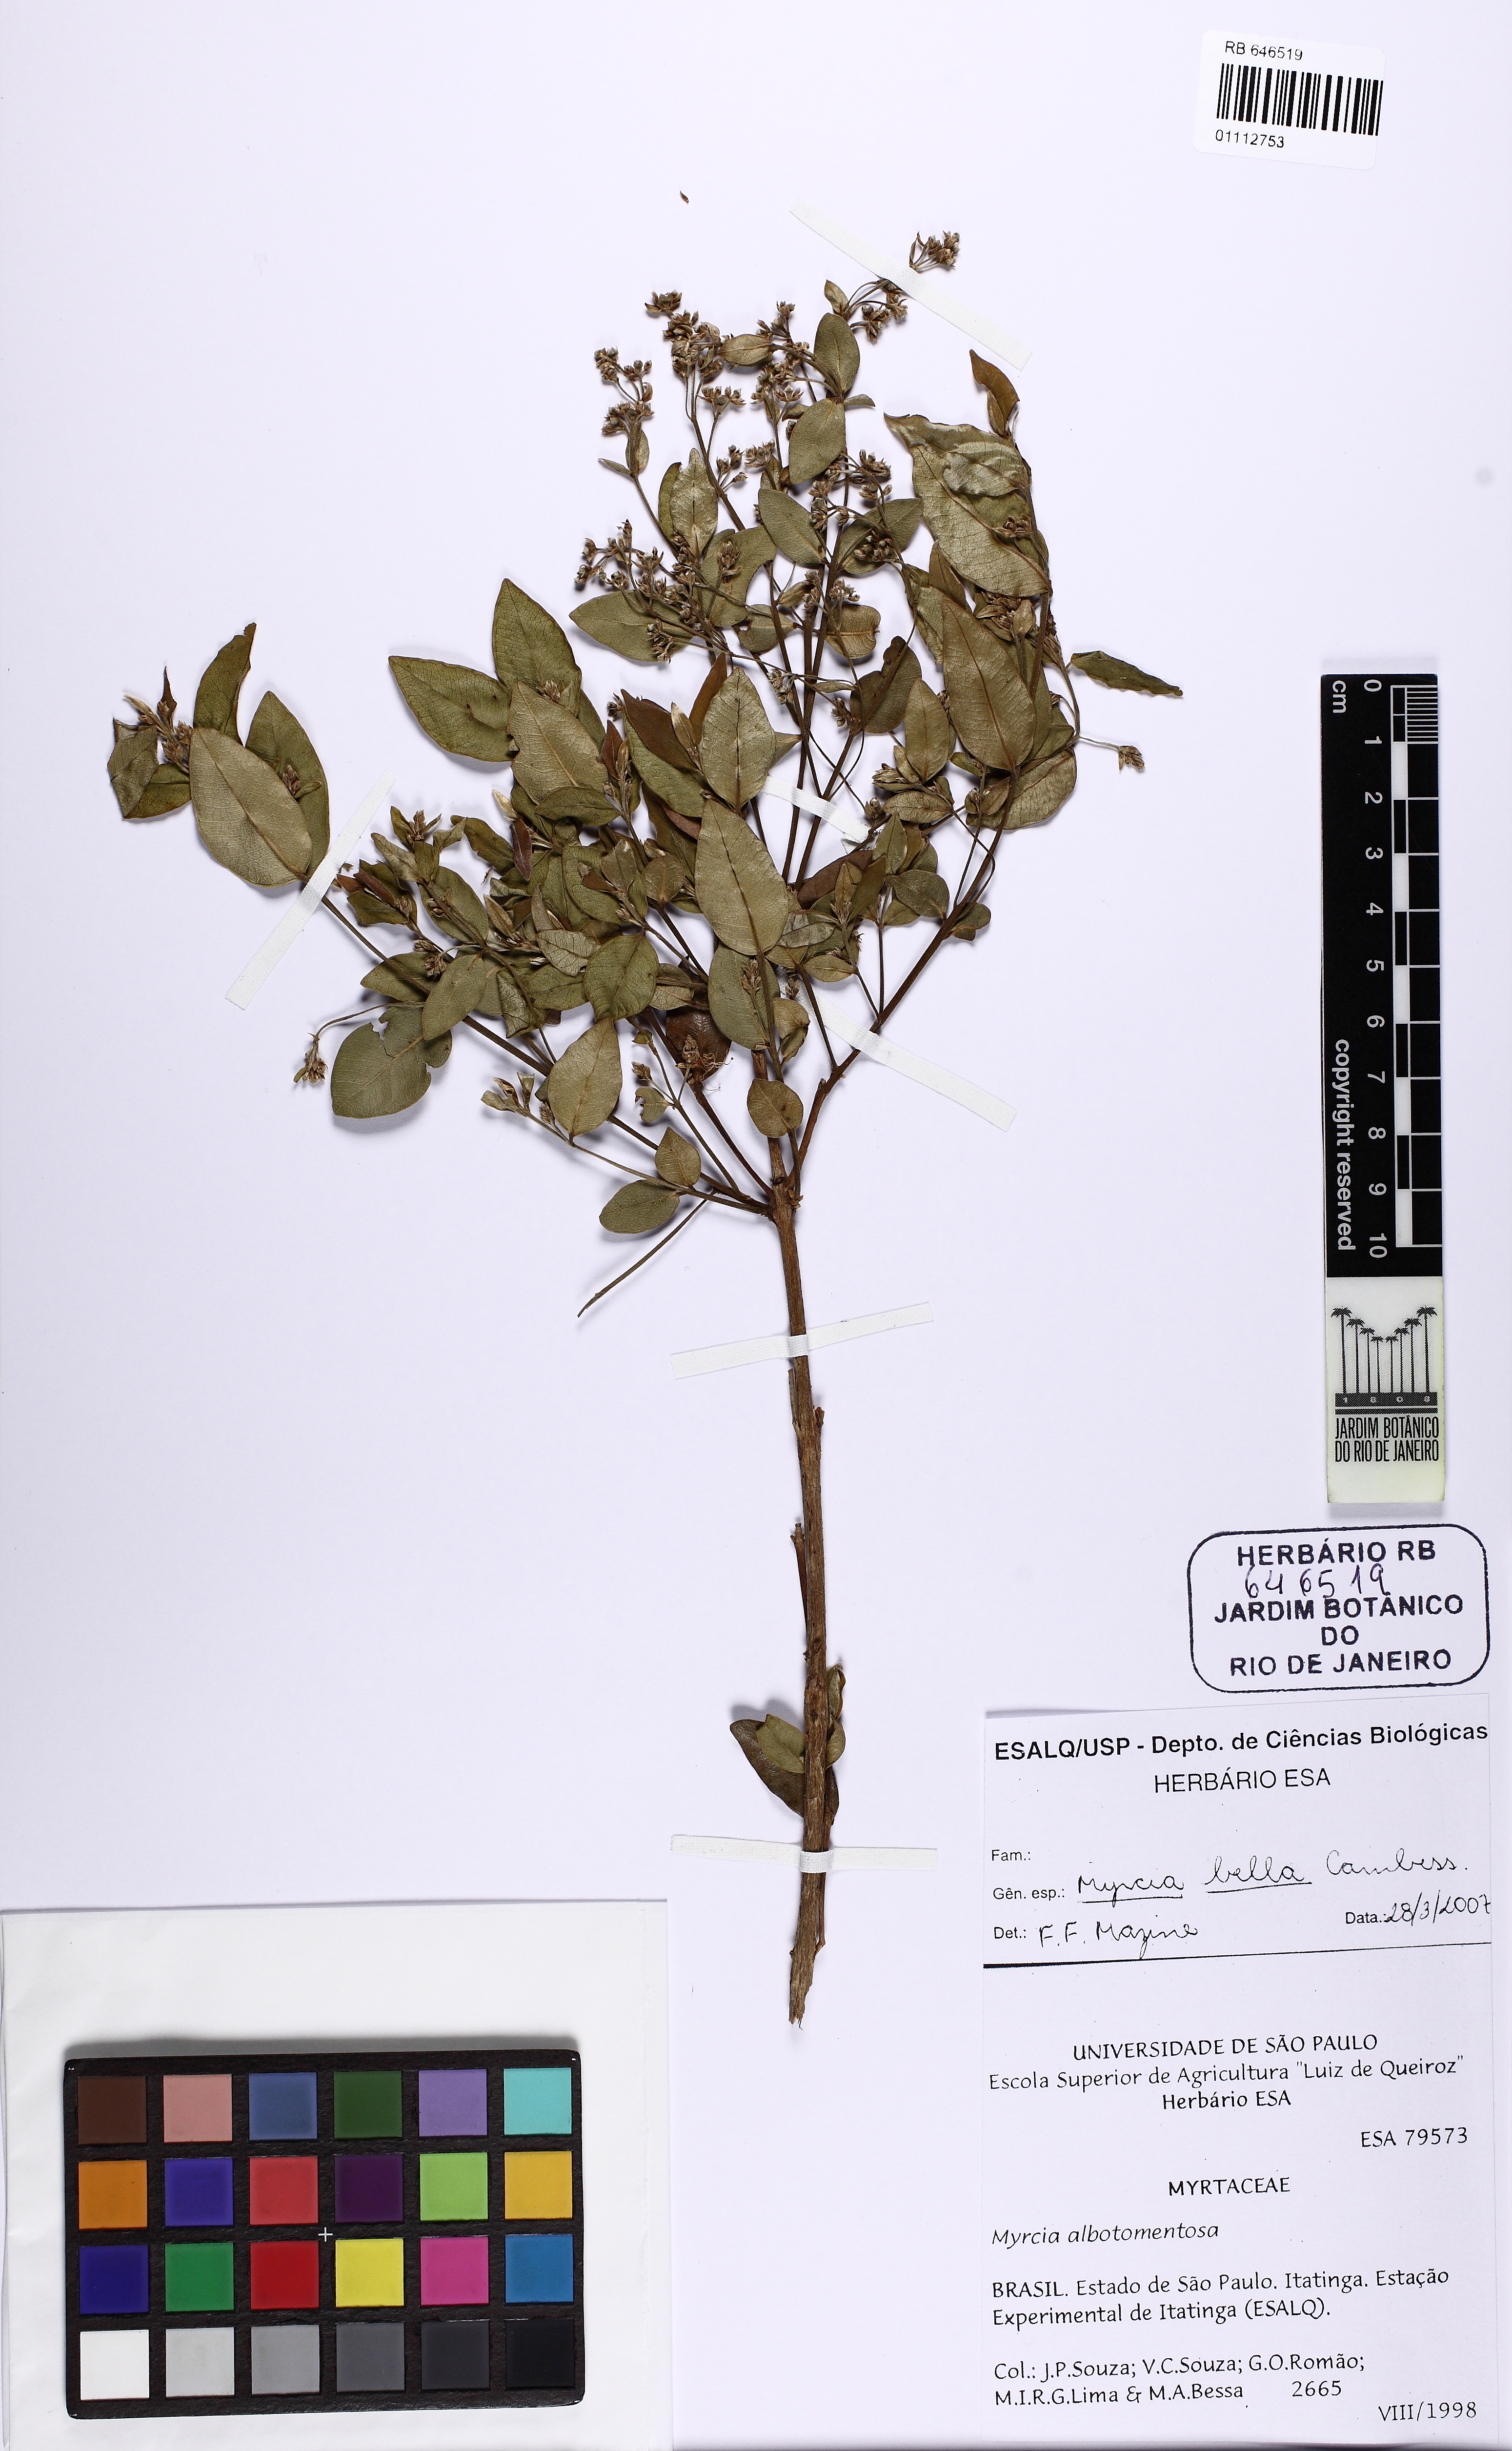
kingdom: Plantae
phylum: Tracheophyta
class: Magnoliopsida
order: Myrtales
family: Myrtaceae
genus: Myrcia
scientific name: Myrcia bella
